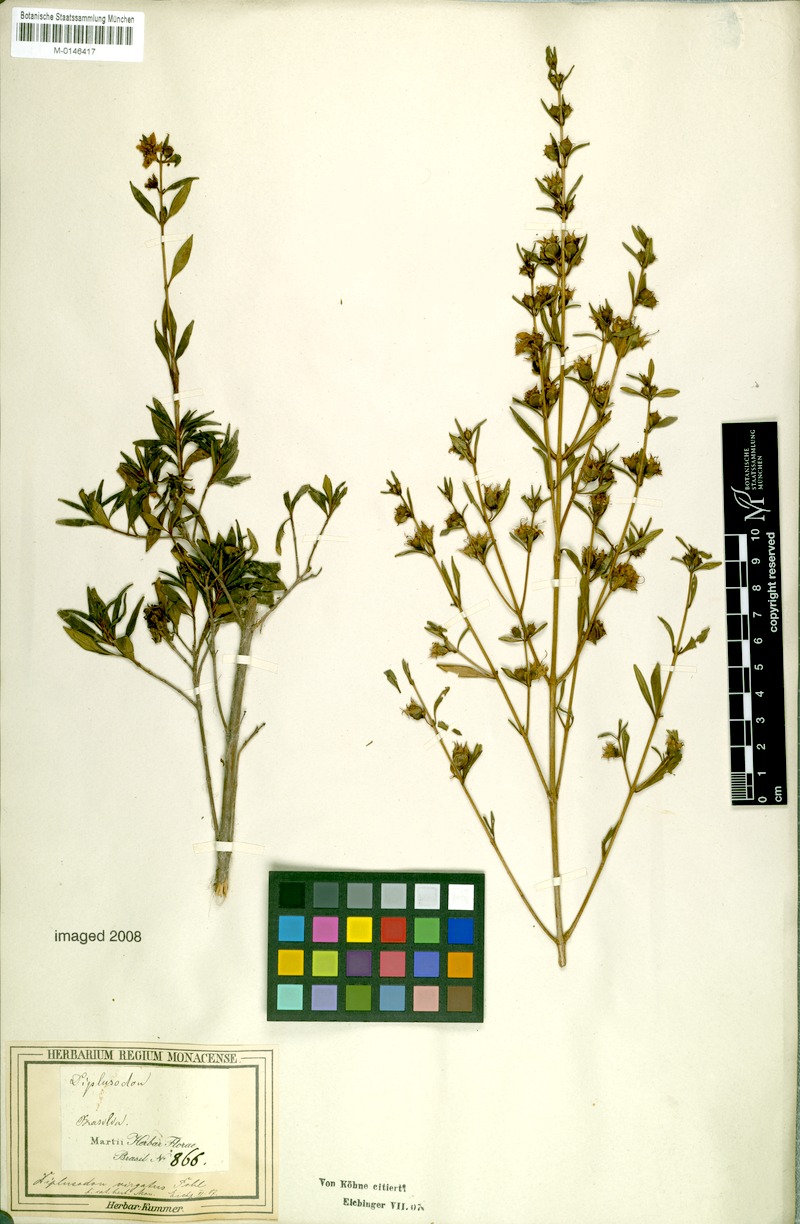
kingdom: Plantae
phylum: Tracheophyta
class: Magnoliopsida
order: Myrtales
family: Lythraceae
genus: Diplusodon
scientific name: Diplusodon virgatus
